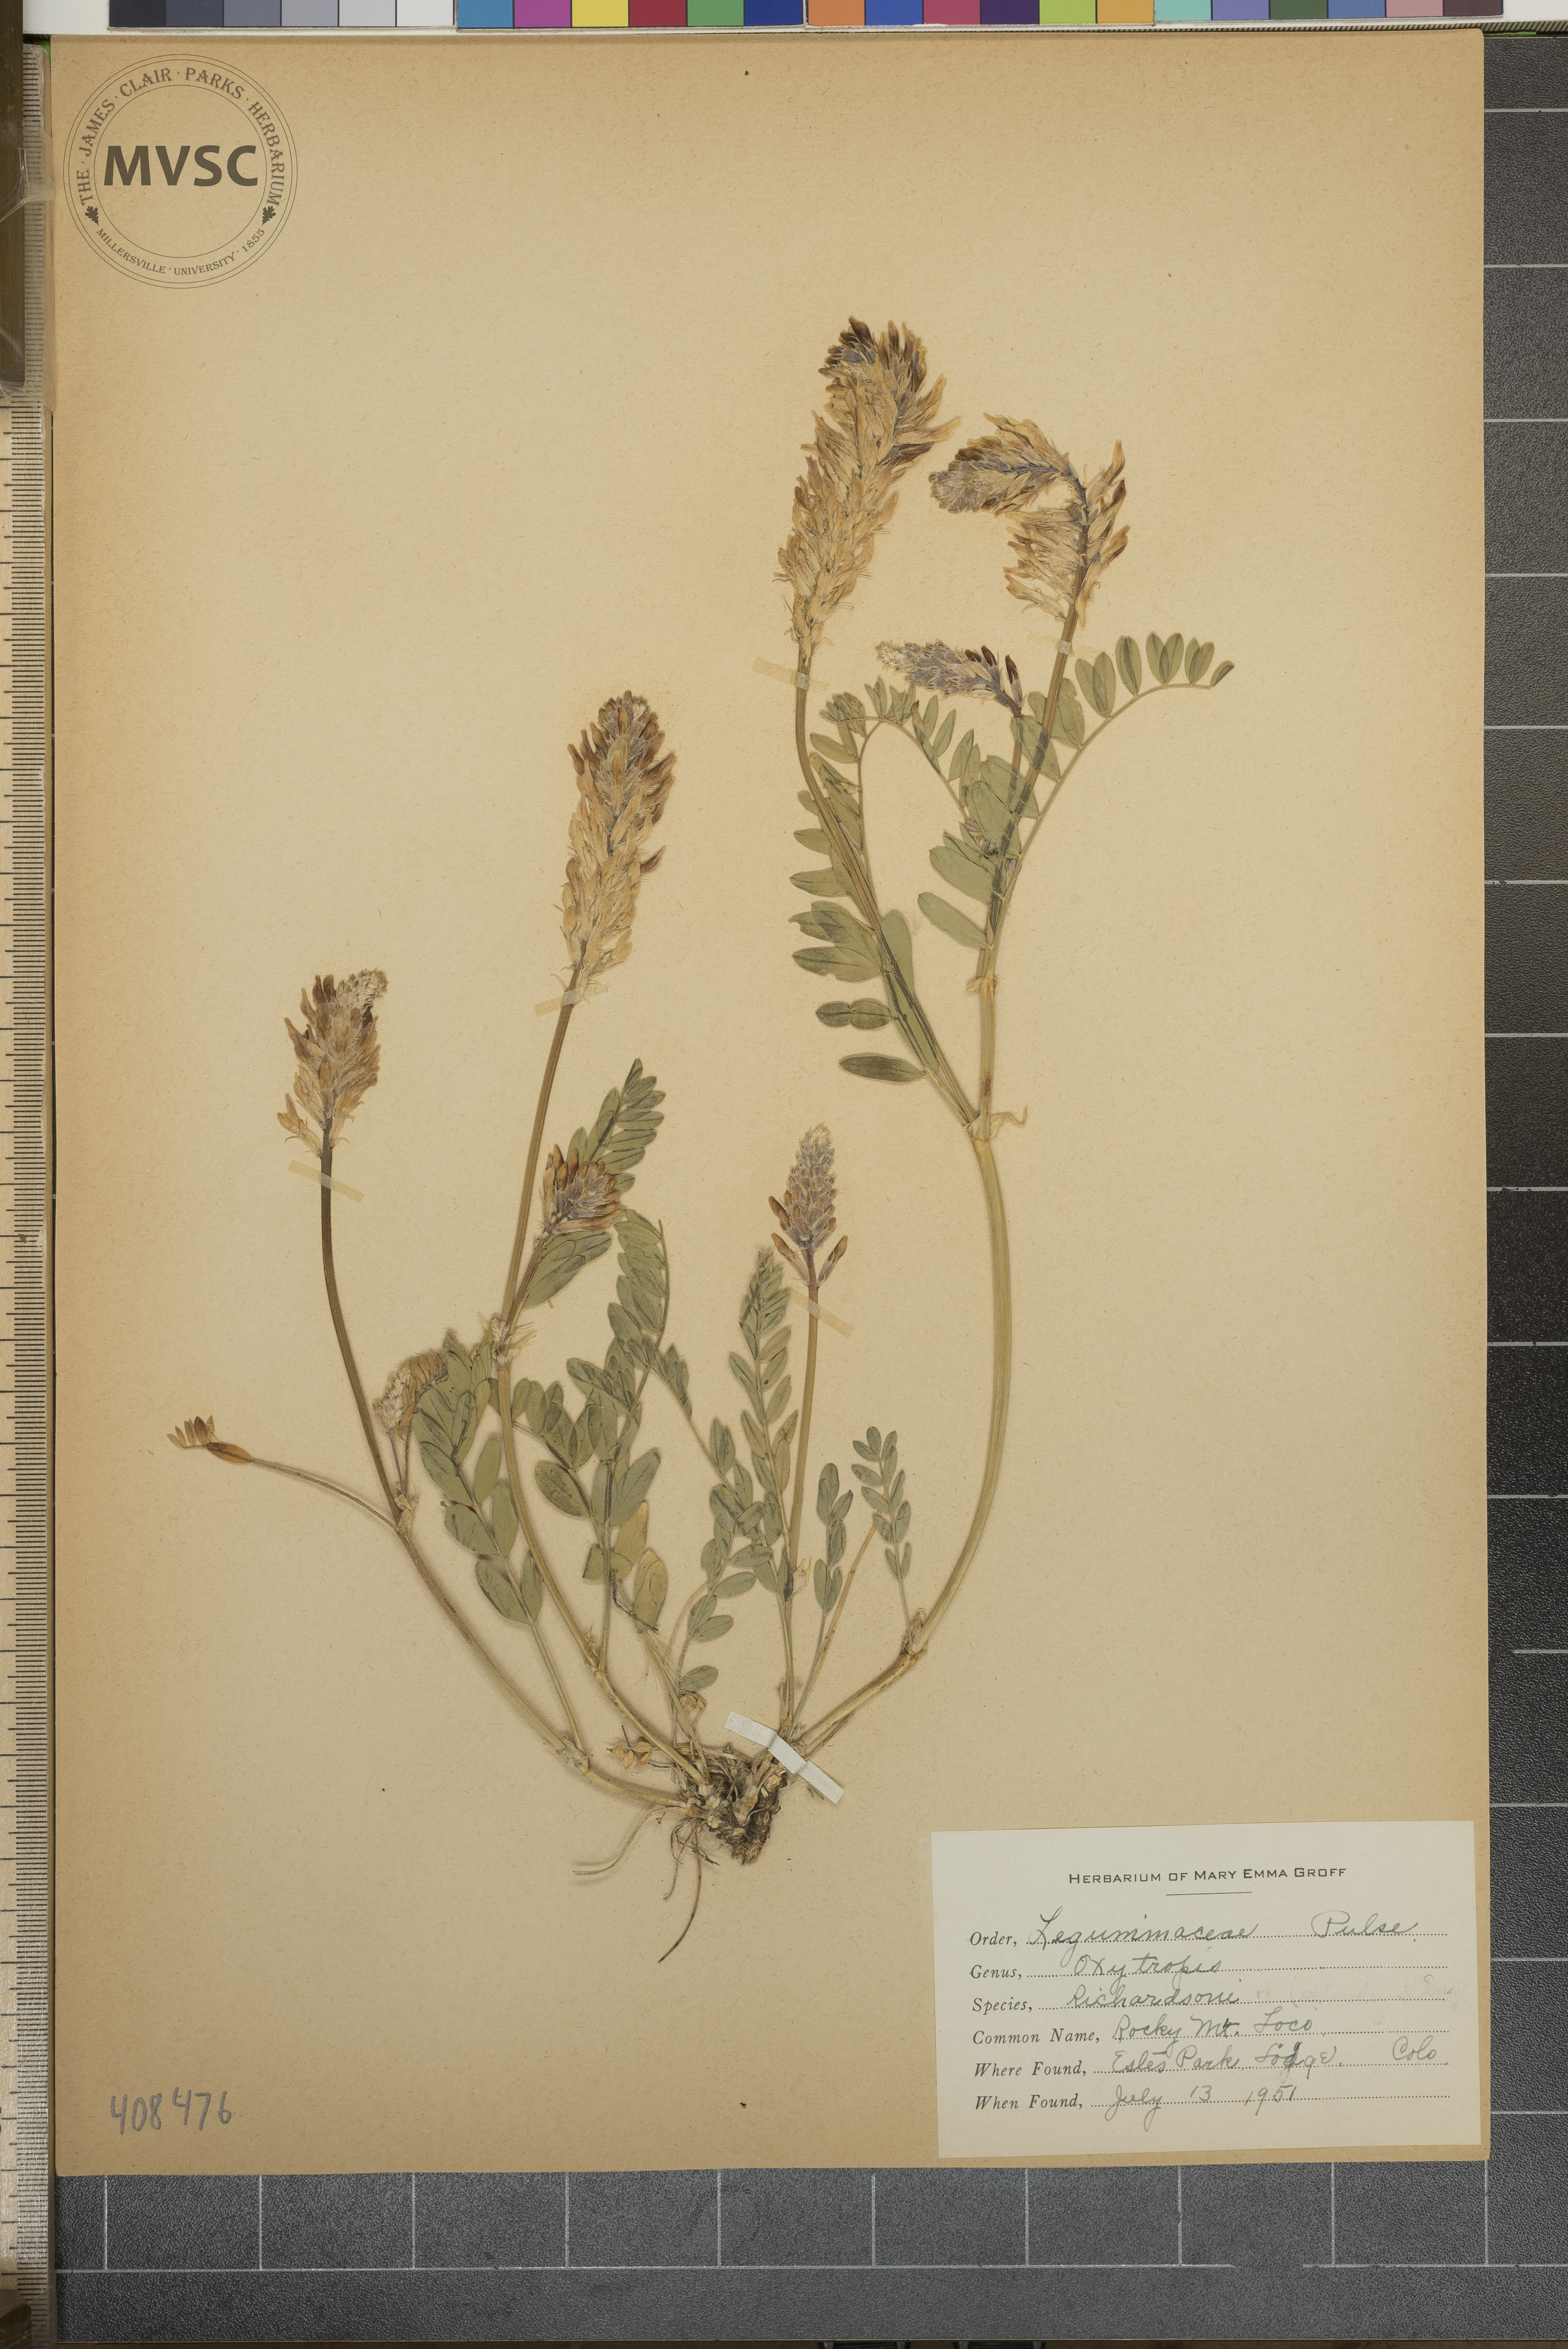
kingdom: Plantae
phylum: Tracheophyta
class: Magnoliopsida
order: Fabales
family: Fabaceae
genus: Oxytropis
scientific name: Oxytropis splendens
